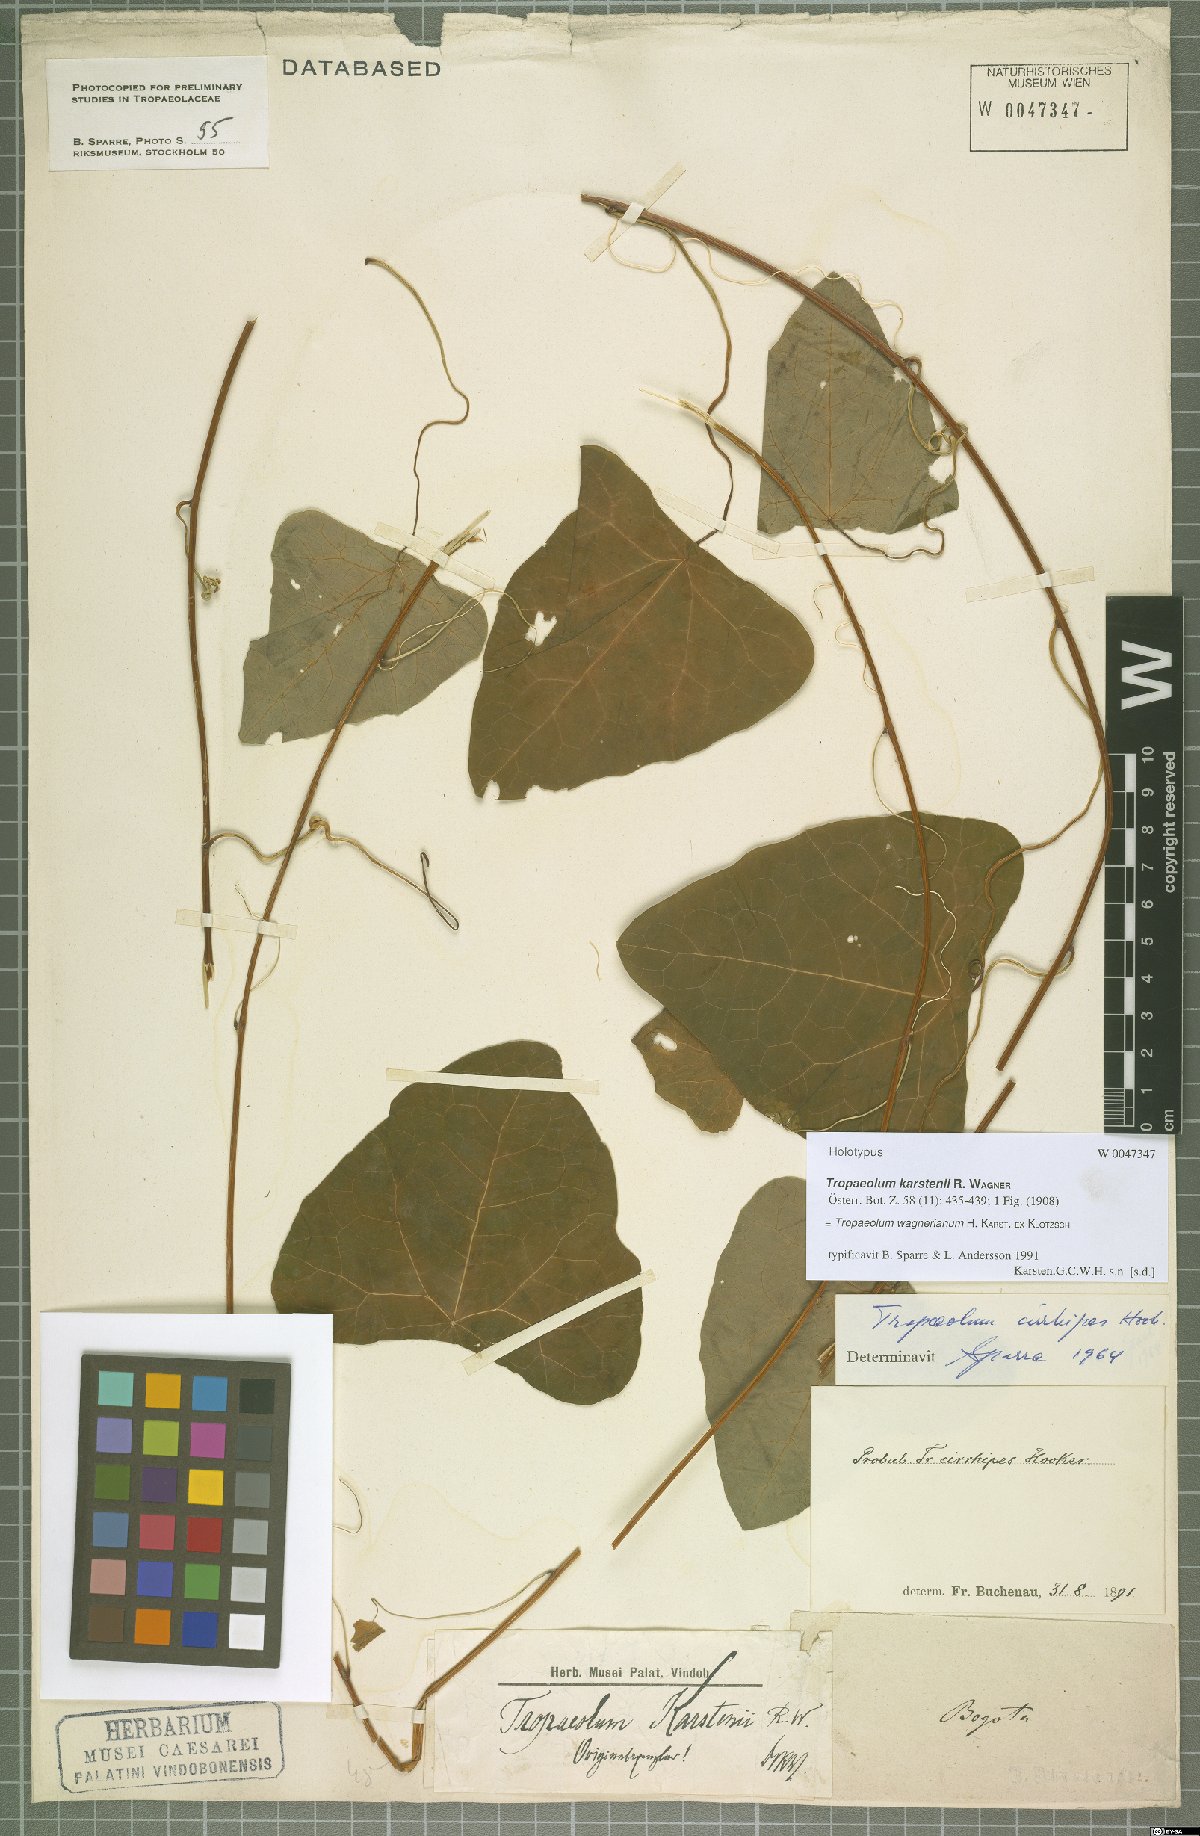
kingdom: Plantae
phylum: Tracheophyta
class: Magnoliopsida
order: Brassicales
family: Tropaeolaceae
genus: Tropaeolum
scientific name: Tropaeolum wagnerianum
